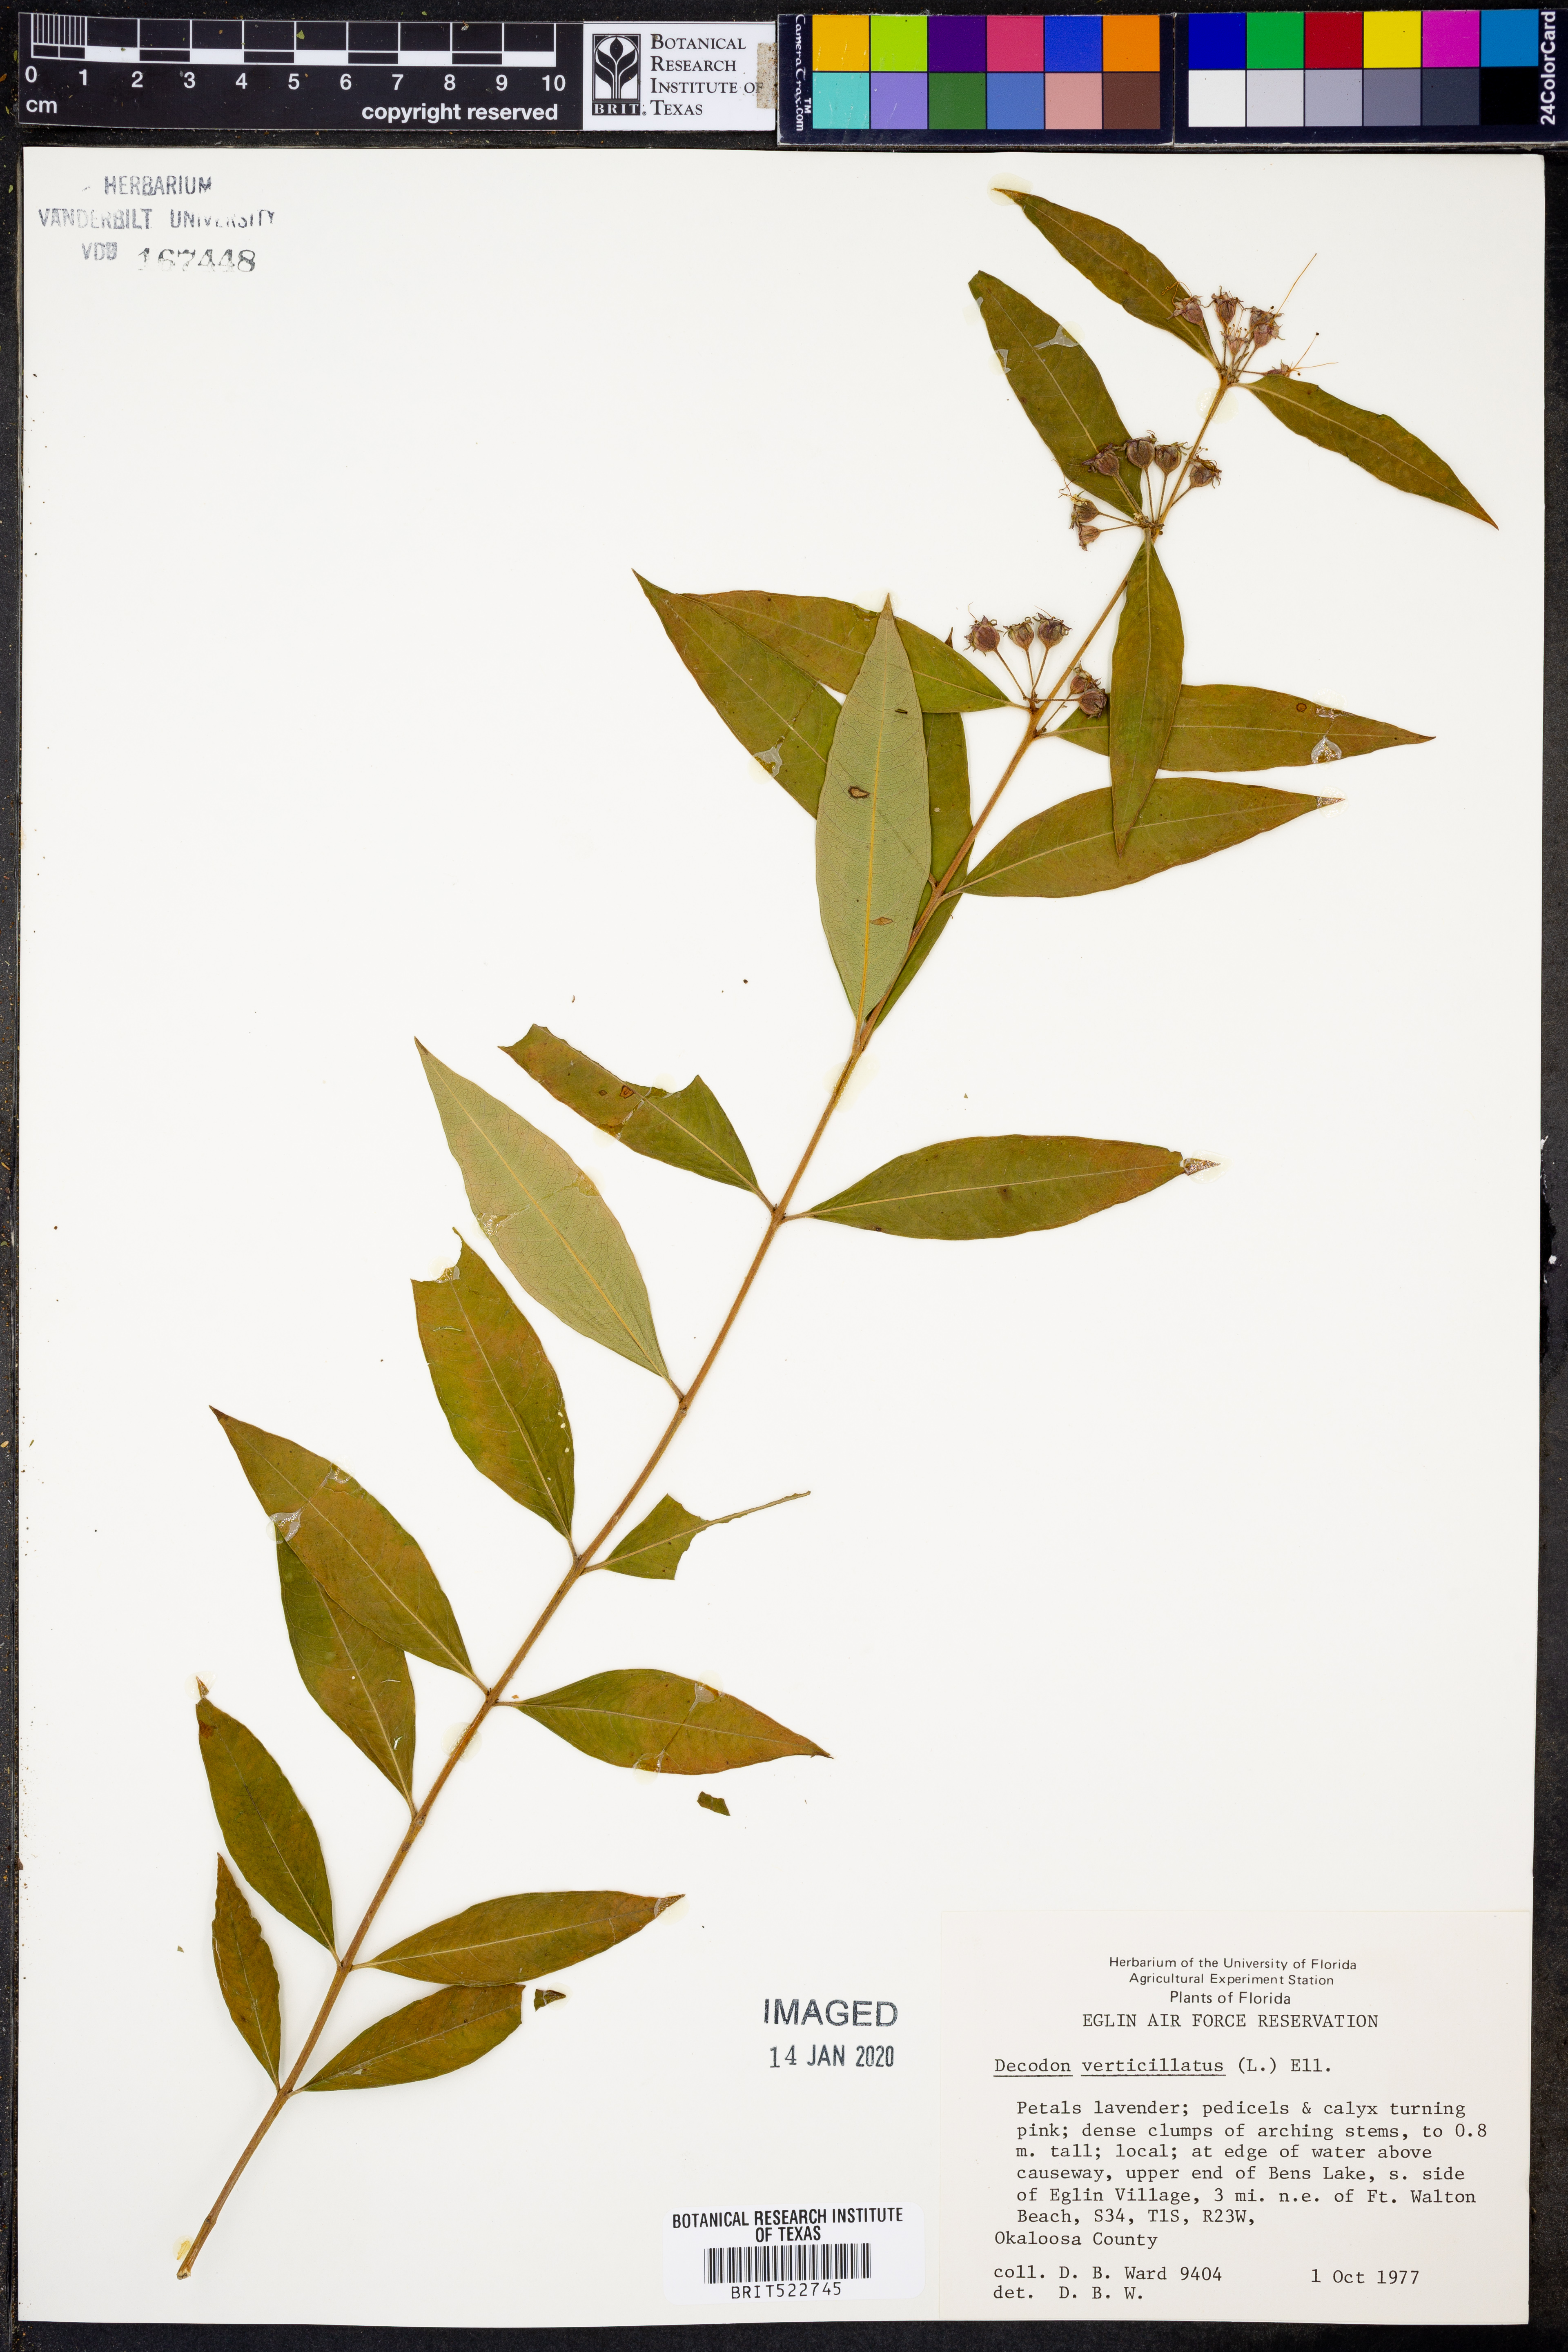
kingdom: Plantae
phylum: Tracheophyta
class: Magnoliopsida
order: Myrtales
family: Lythraceae
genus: Decodon
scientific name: Decodon verticillatus
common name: Hairy swamp loosestrife
